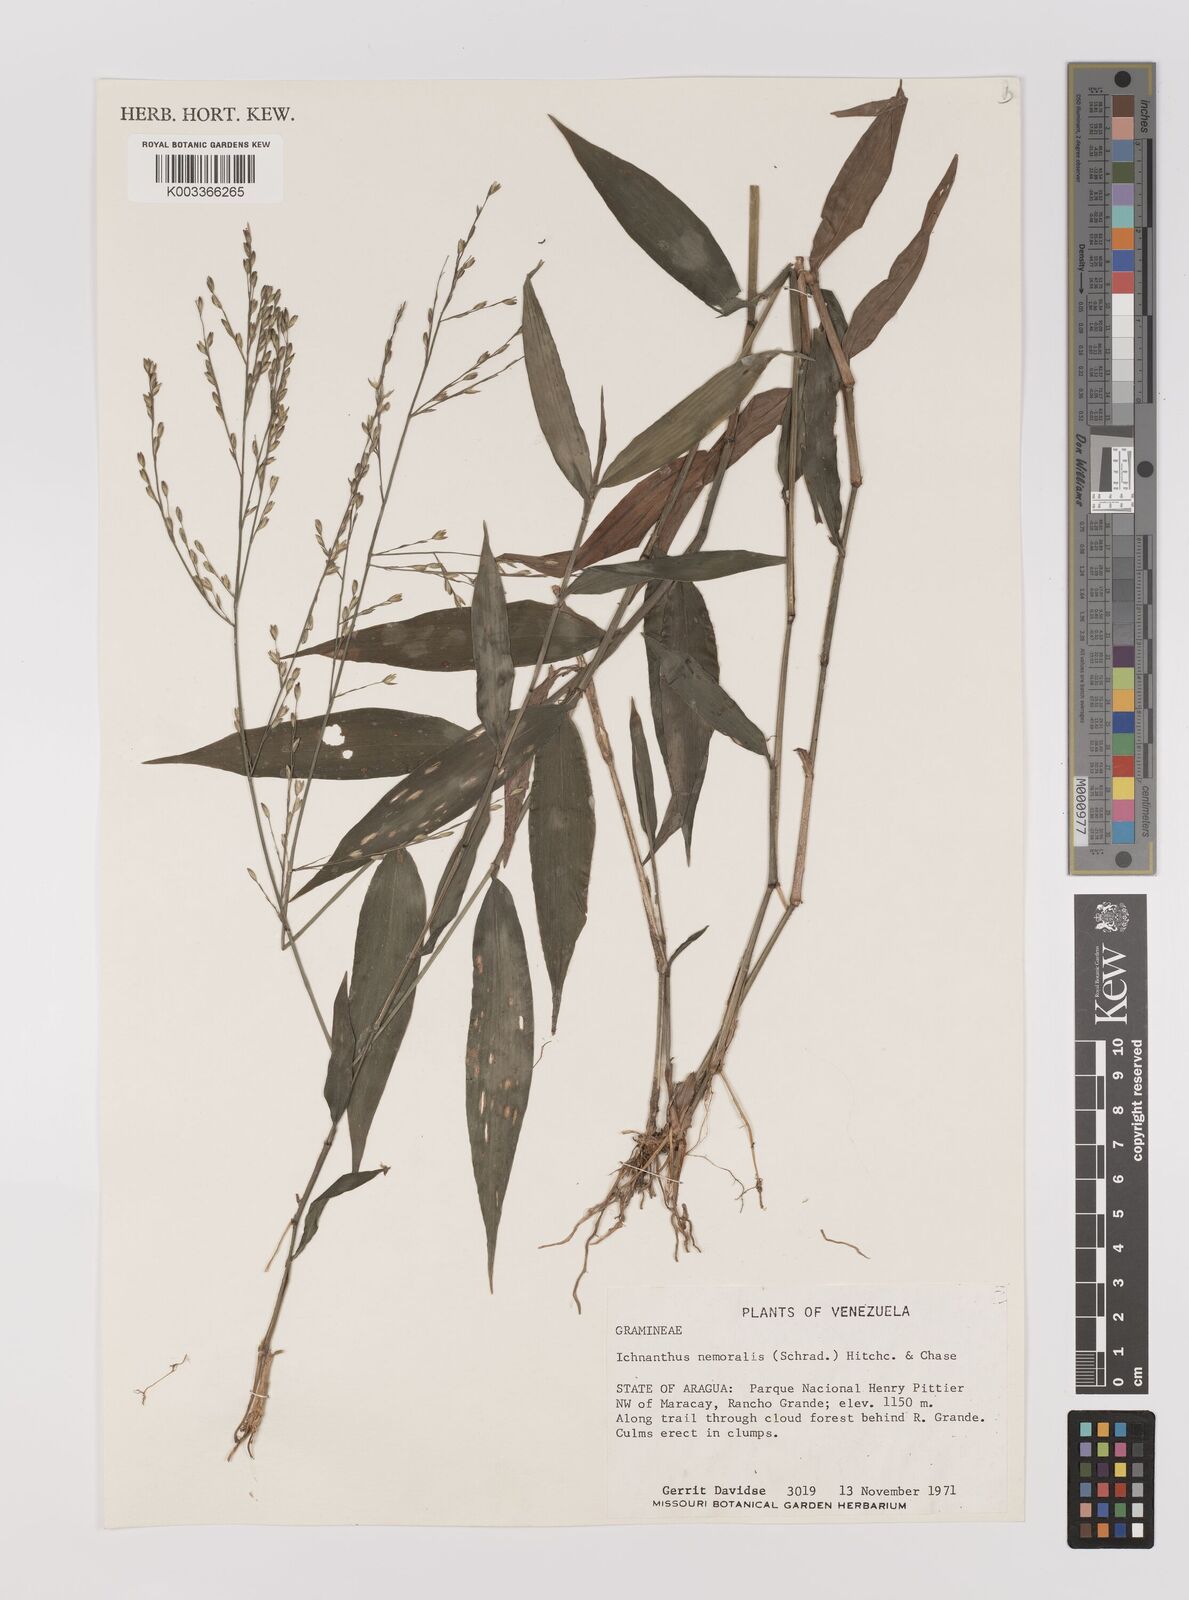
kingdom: Plantae
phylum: Tracheophyta
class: Liliopsida
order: Poales
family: Poaceae
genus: Ichnanthus
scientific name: Ichnanthus nemoralis
